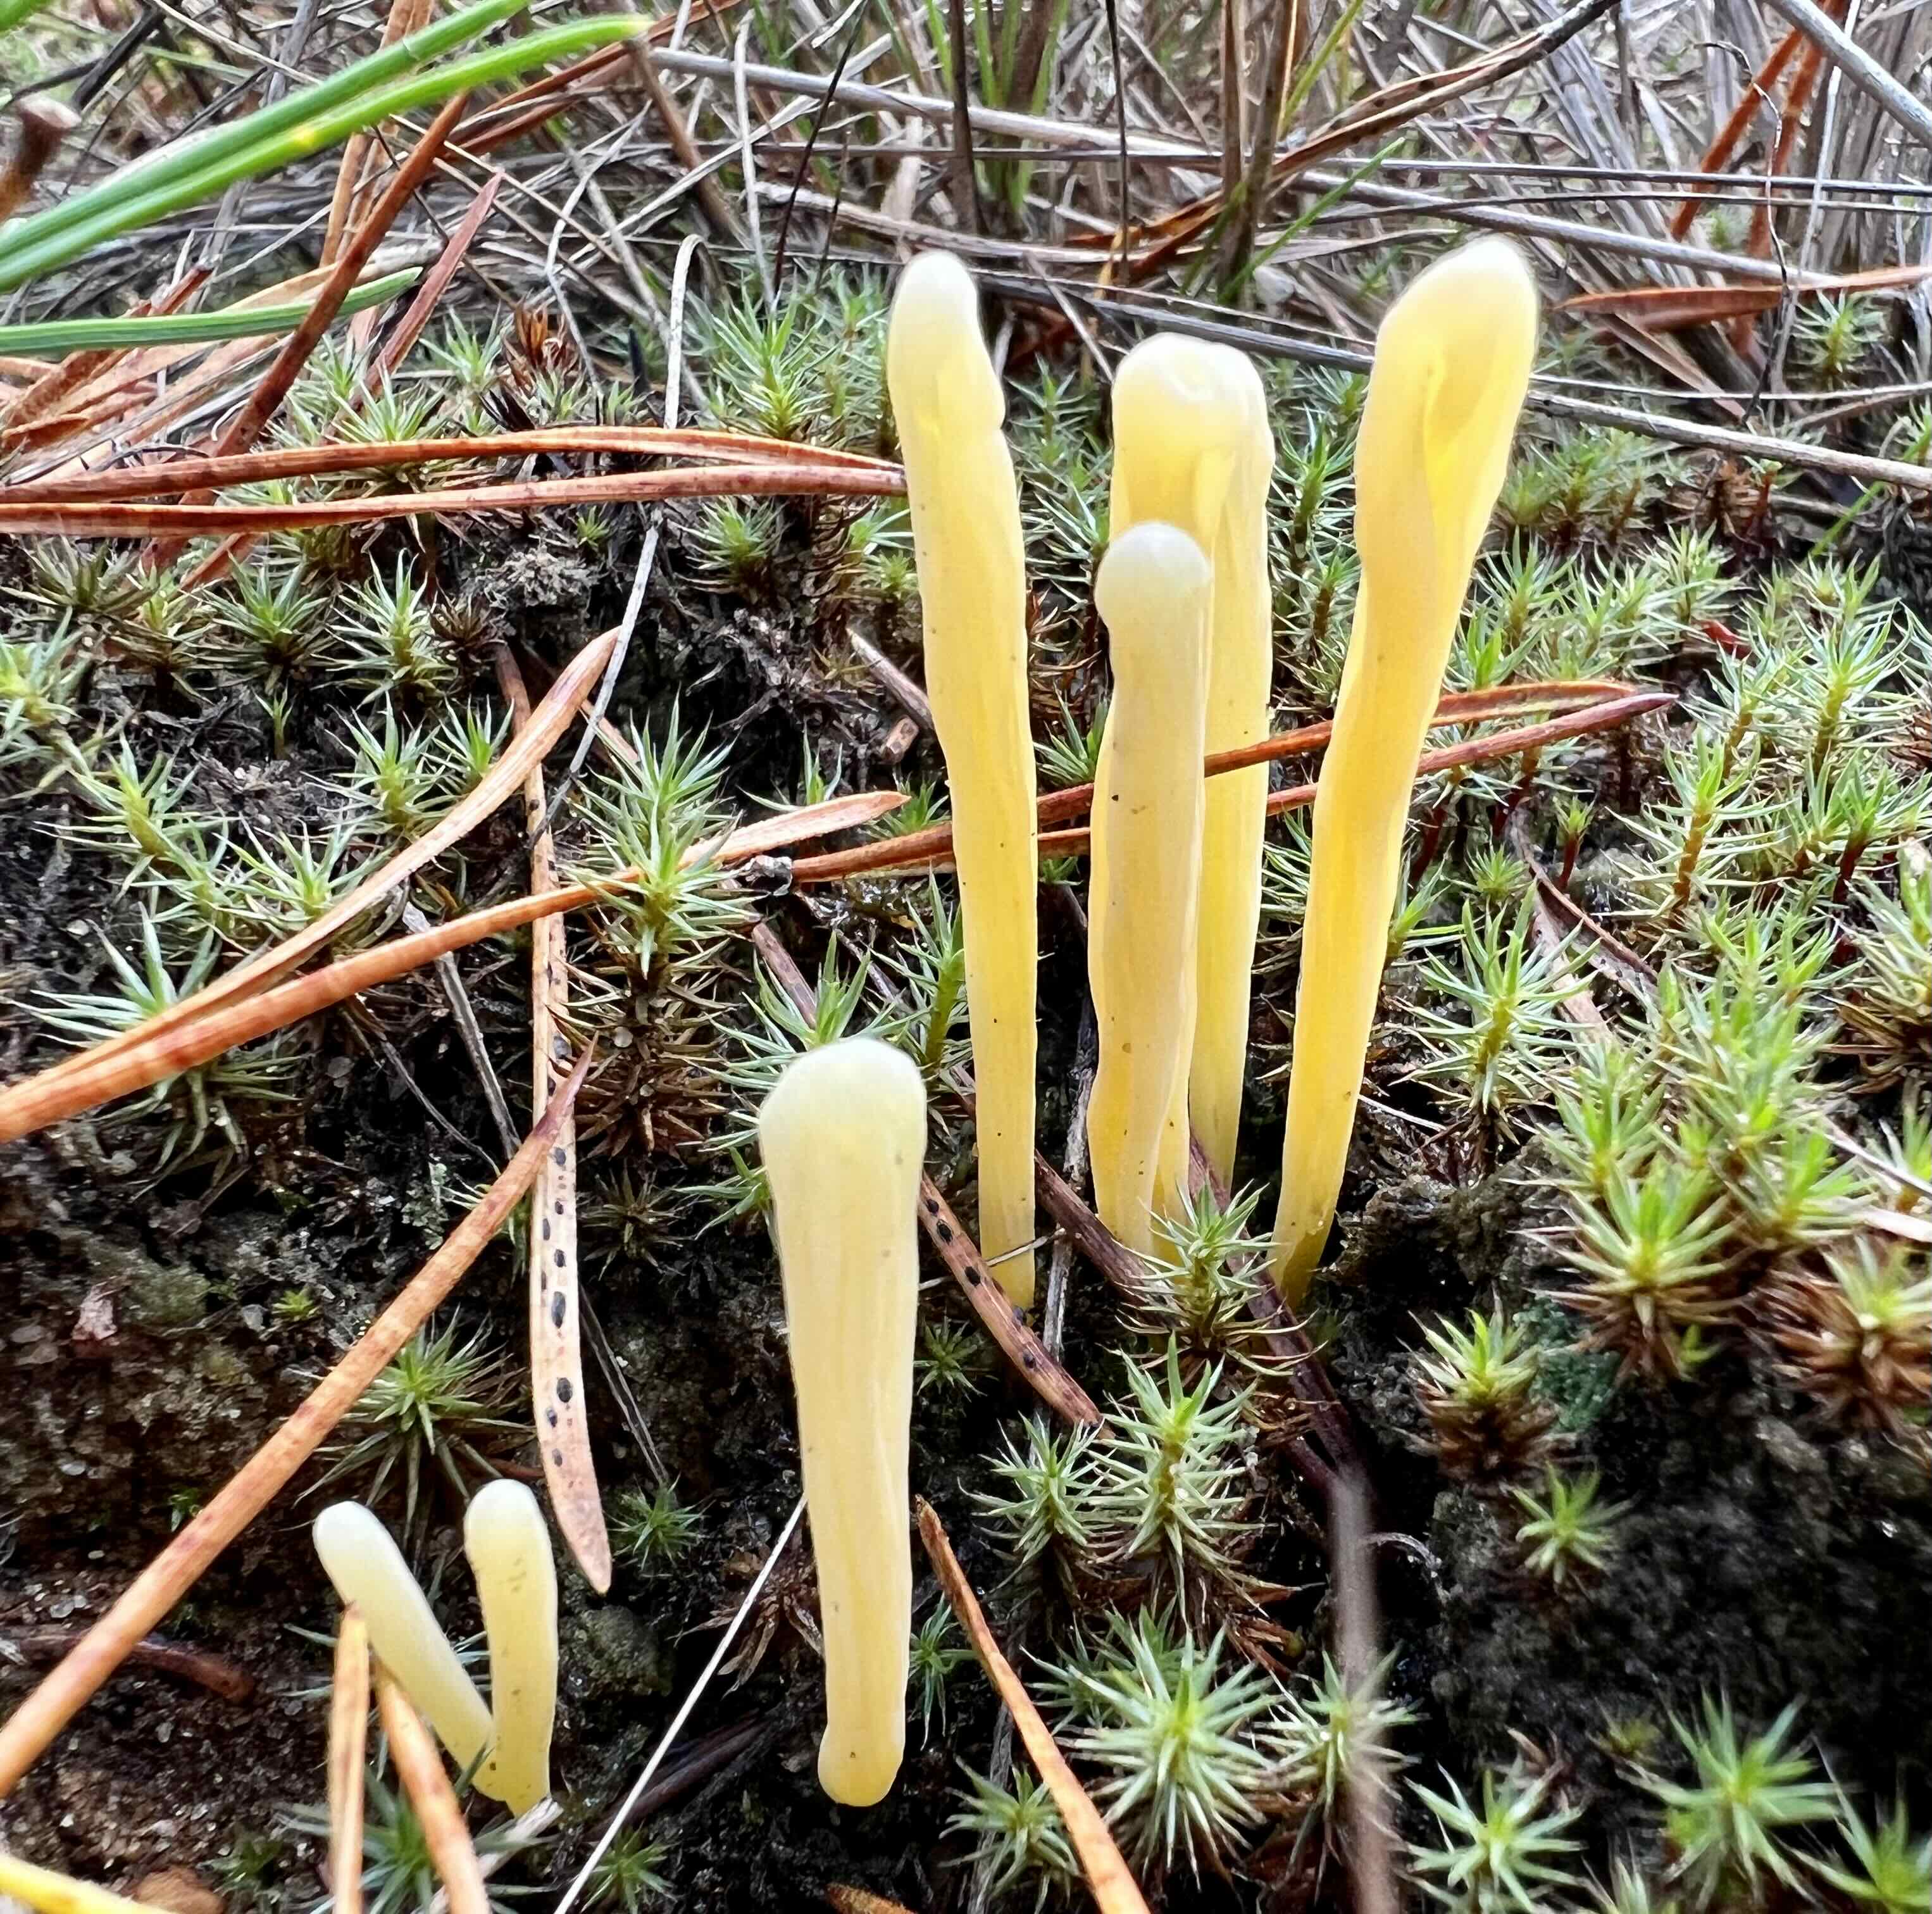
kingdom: Fungi
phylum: Basidiomycota
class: Agaricomycetes
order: Agaricales
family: Clavariaceae
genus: Clavaria
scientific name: Clavaria argillacea
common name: lerfarvet køllesvamp
